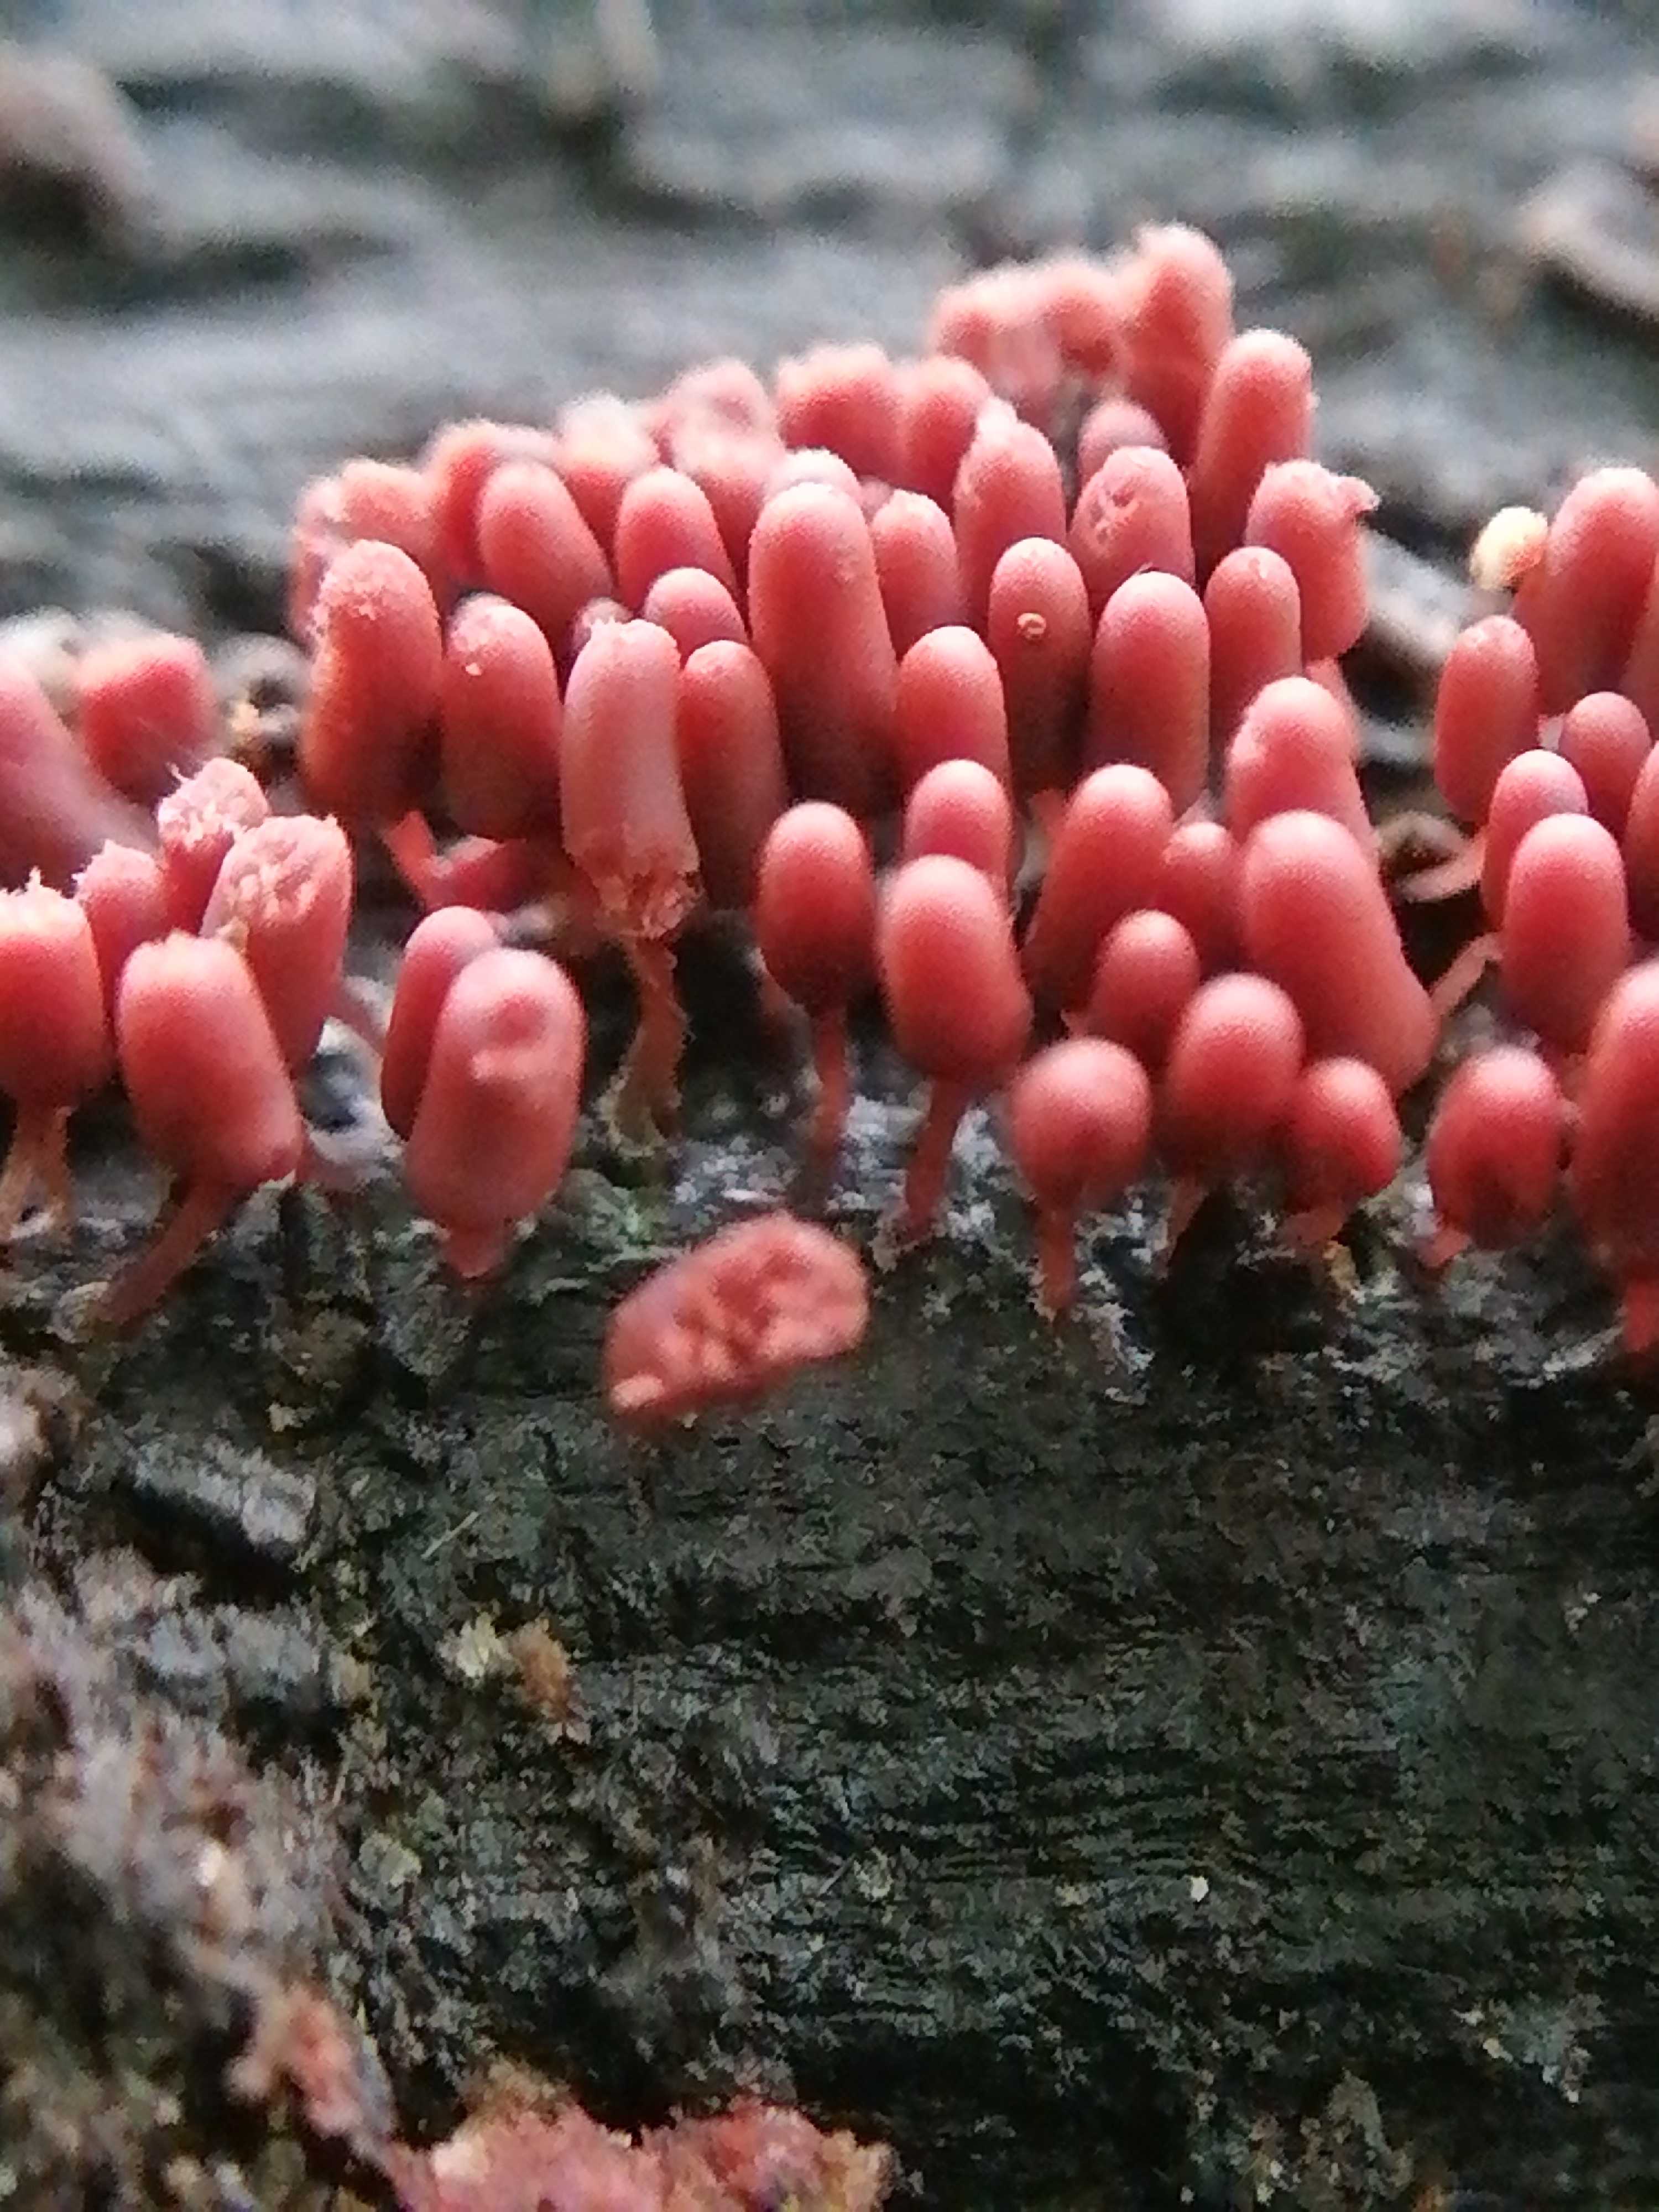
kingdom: Protozoa
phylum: Mycetozoa
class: Myxomycetes
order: Trichiales
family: Arcyriaceae
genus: Arcyria
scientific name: Arcyria denudata
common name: karminrød skålsvøb
